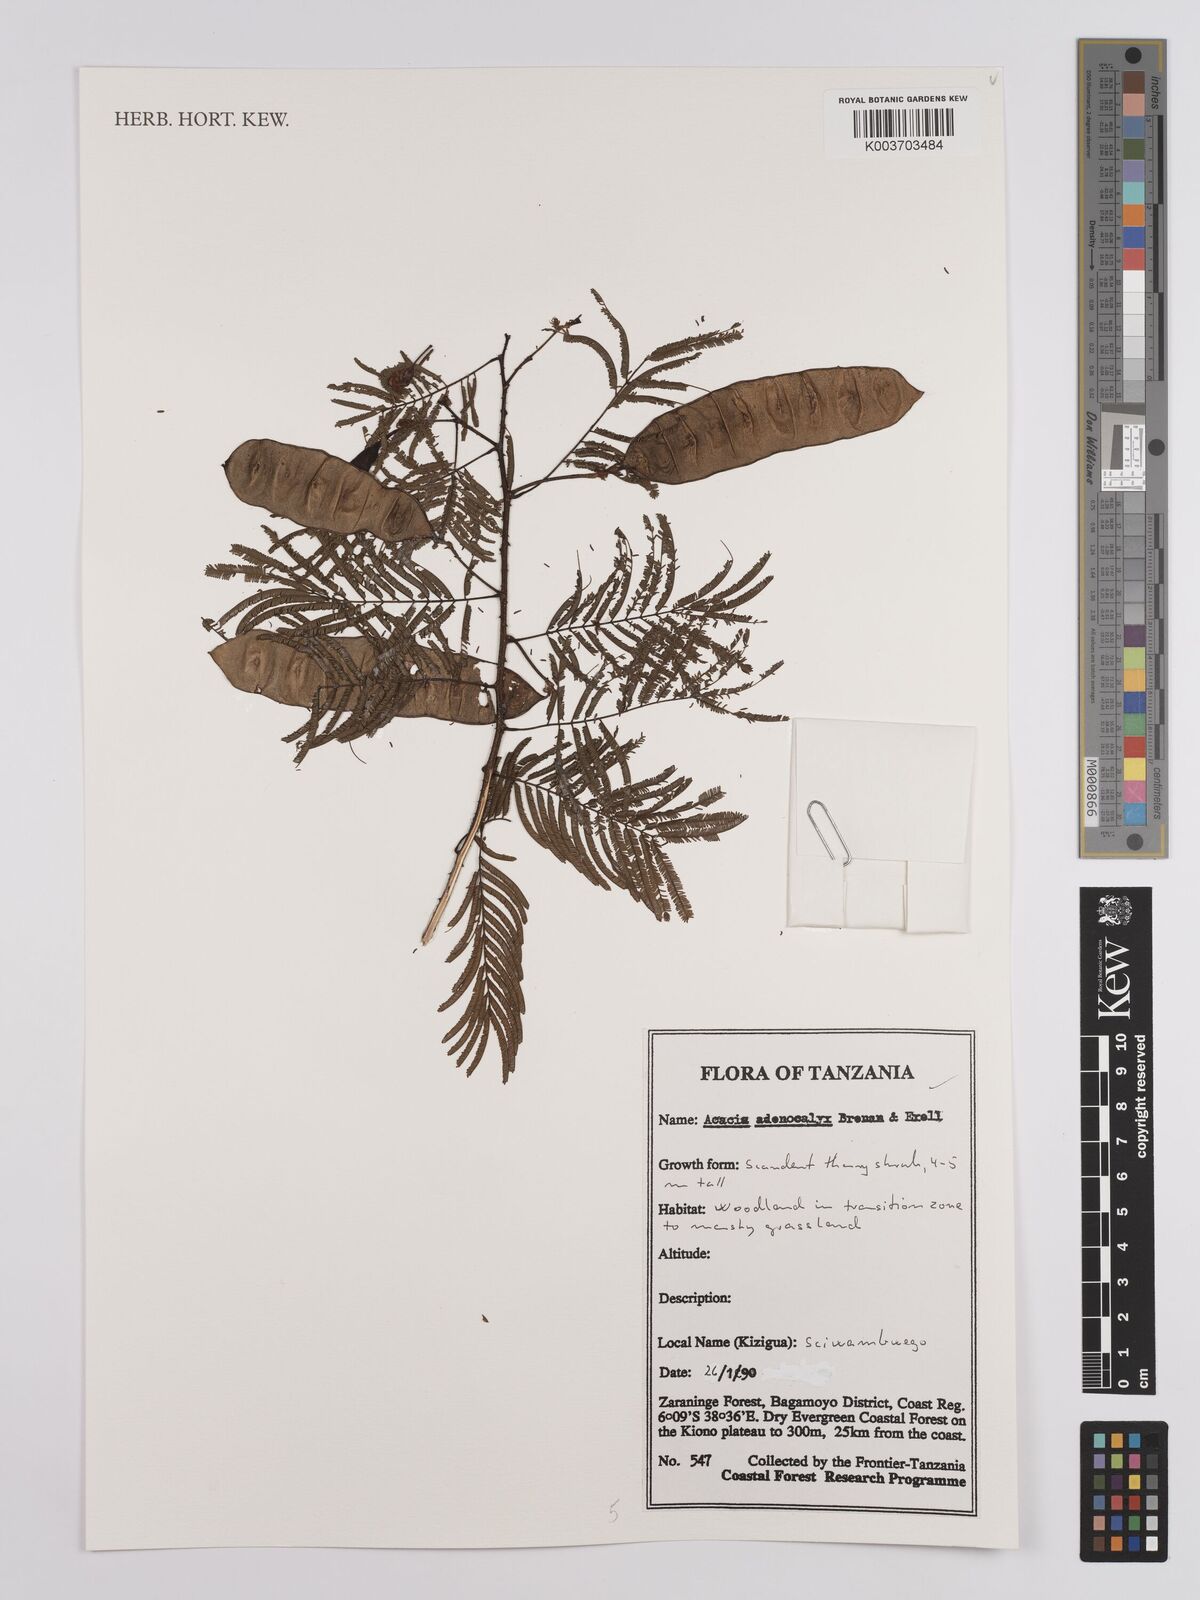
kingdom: Plantae
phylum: Tracheophyta
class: Magnoliopsida
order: Fabales
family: Fabaceae
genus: Senegalia
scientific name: Senegalia adenocalyx
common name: Pfurura
